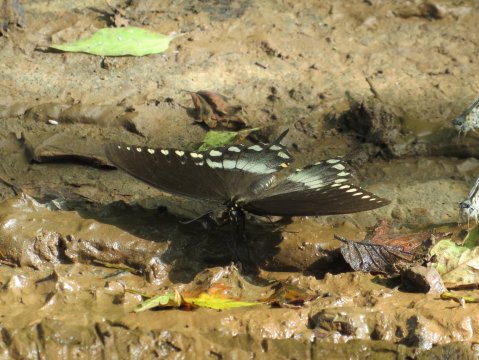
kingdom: Animalia
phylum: Arthropoda
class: Insecta
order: Lepidoptera
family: Papilionidae
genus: Pterourus
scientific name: Pterourus troilus
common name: Spicebush Swallowtail
